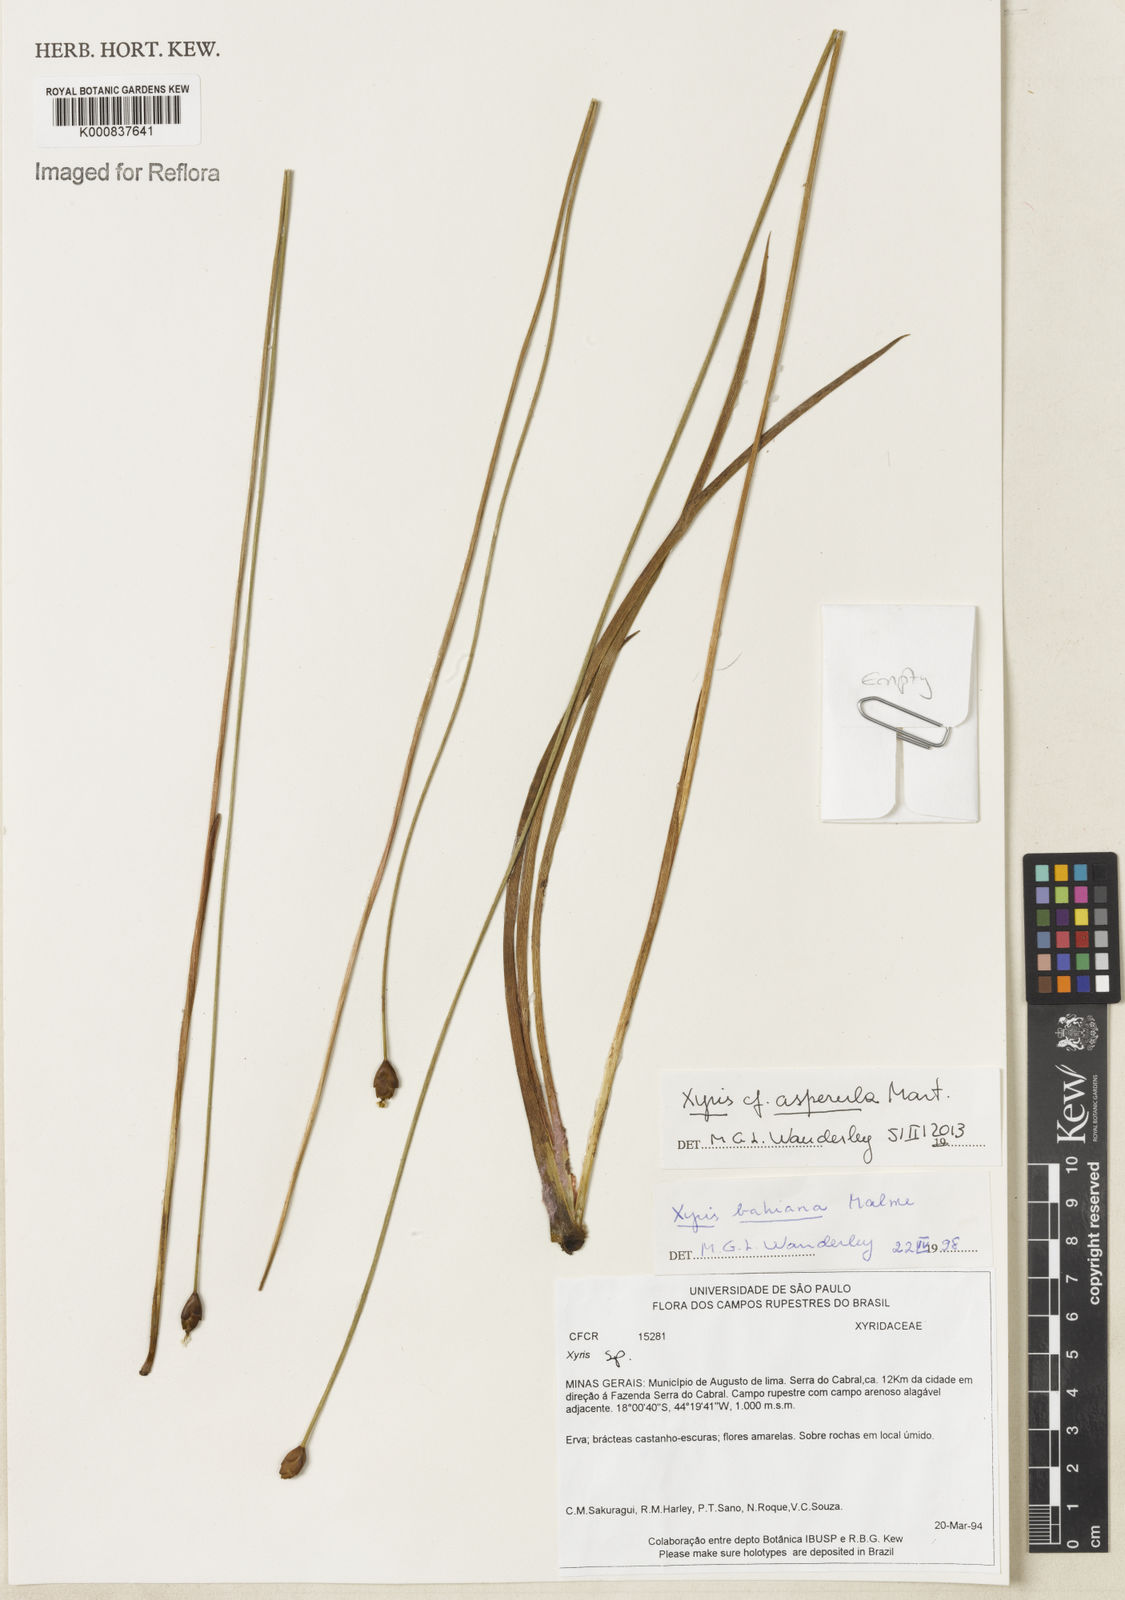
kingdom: Plantae
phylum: Tracheophyta
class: Liliopsida
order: Poales
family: Xyridaceae
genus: Xyris
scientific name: Xyris asperula
